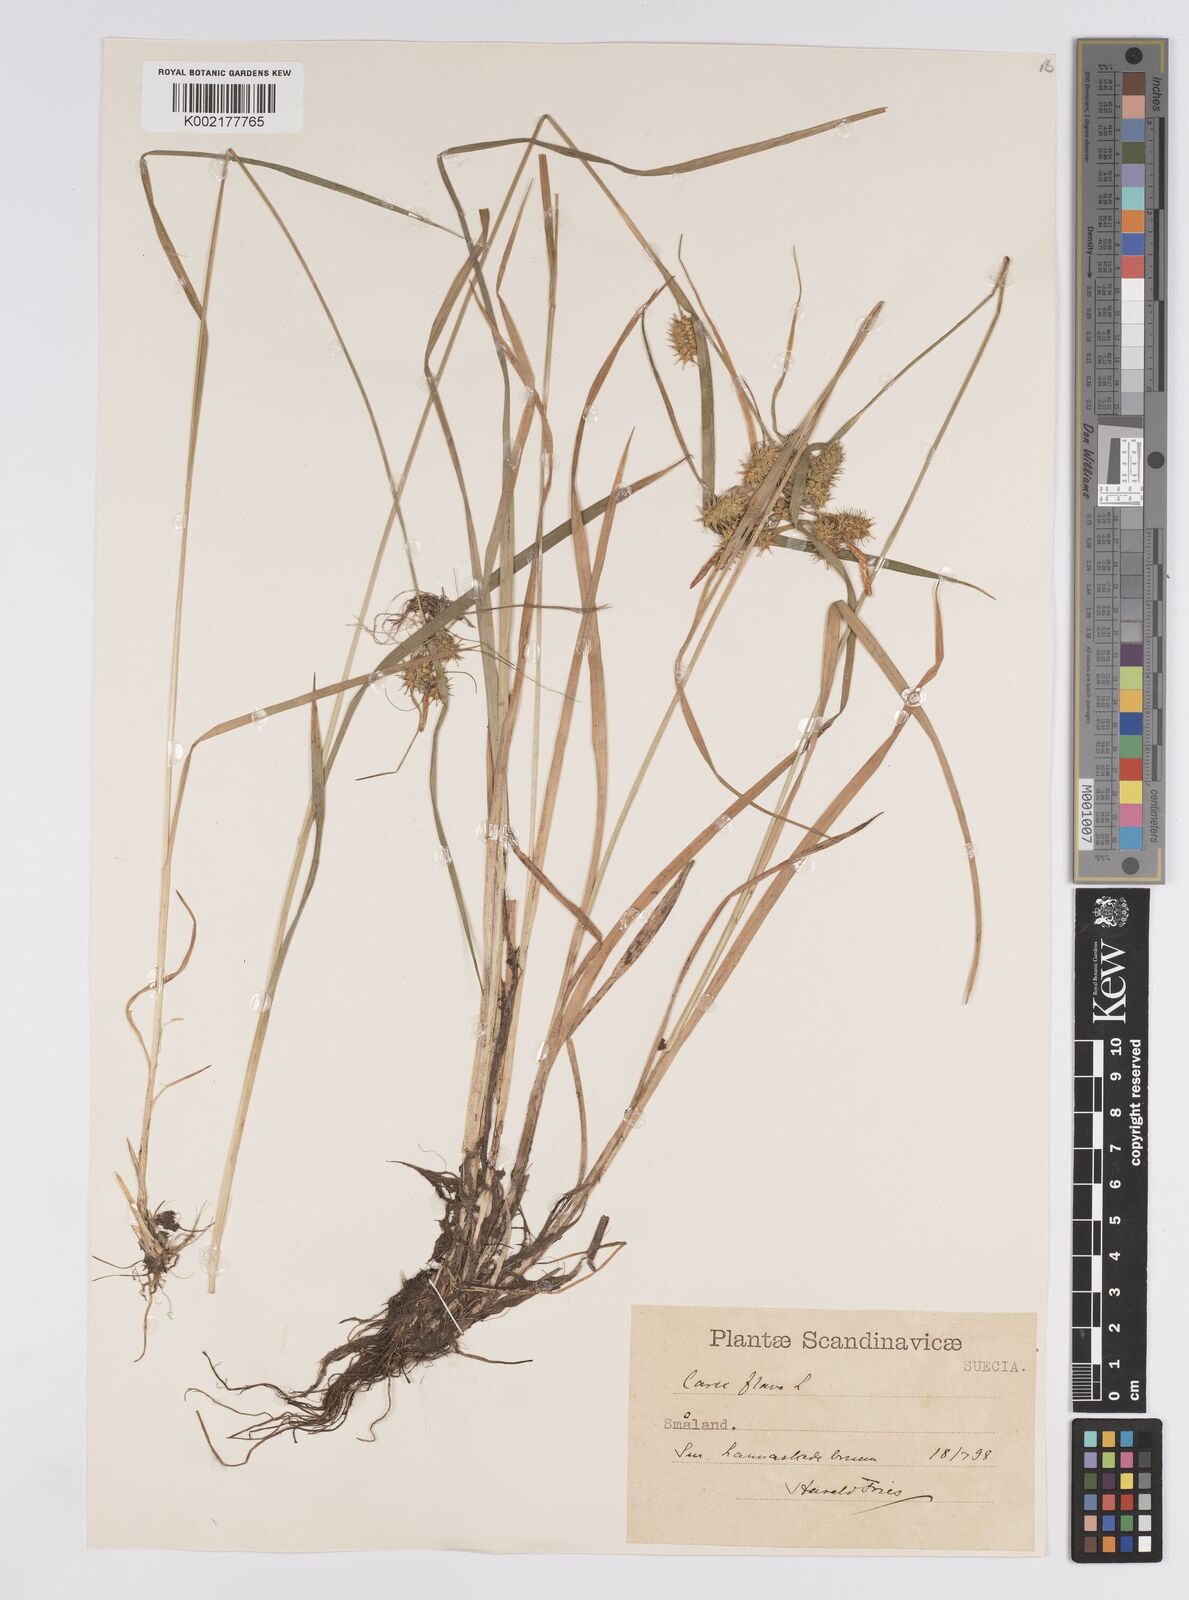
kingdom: Plantae
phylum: Tracheophyta
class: Liliopsida
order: Poales
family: Cyperaceae
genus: Carex
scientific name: Carex flava
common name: Large yellow-sedge
